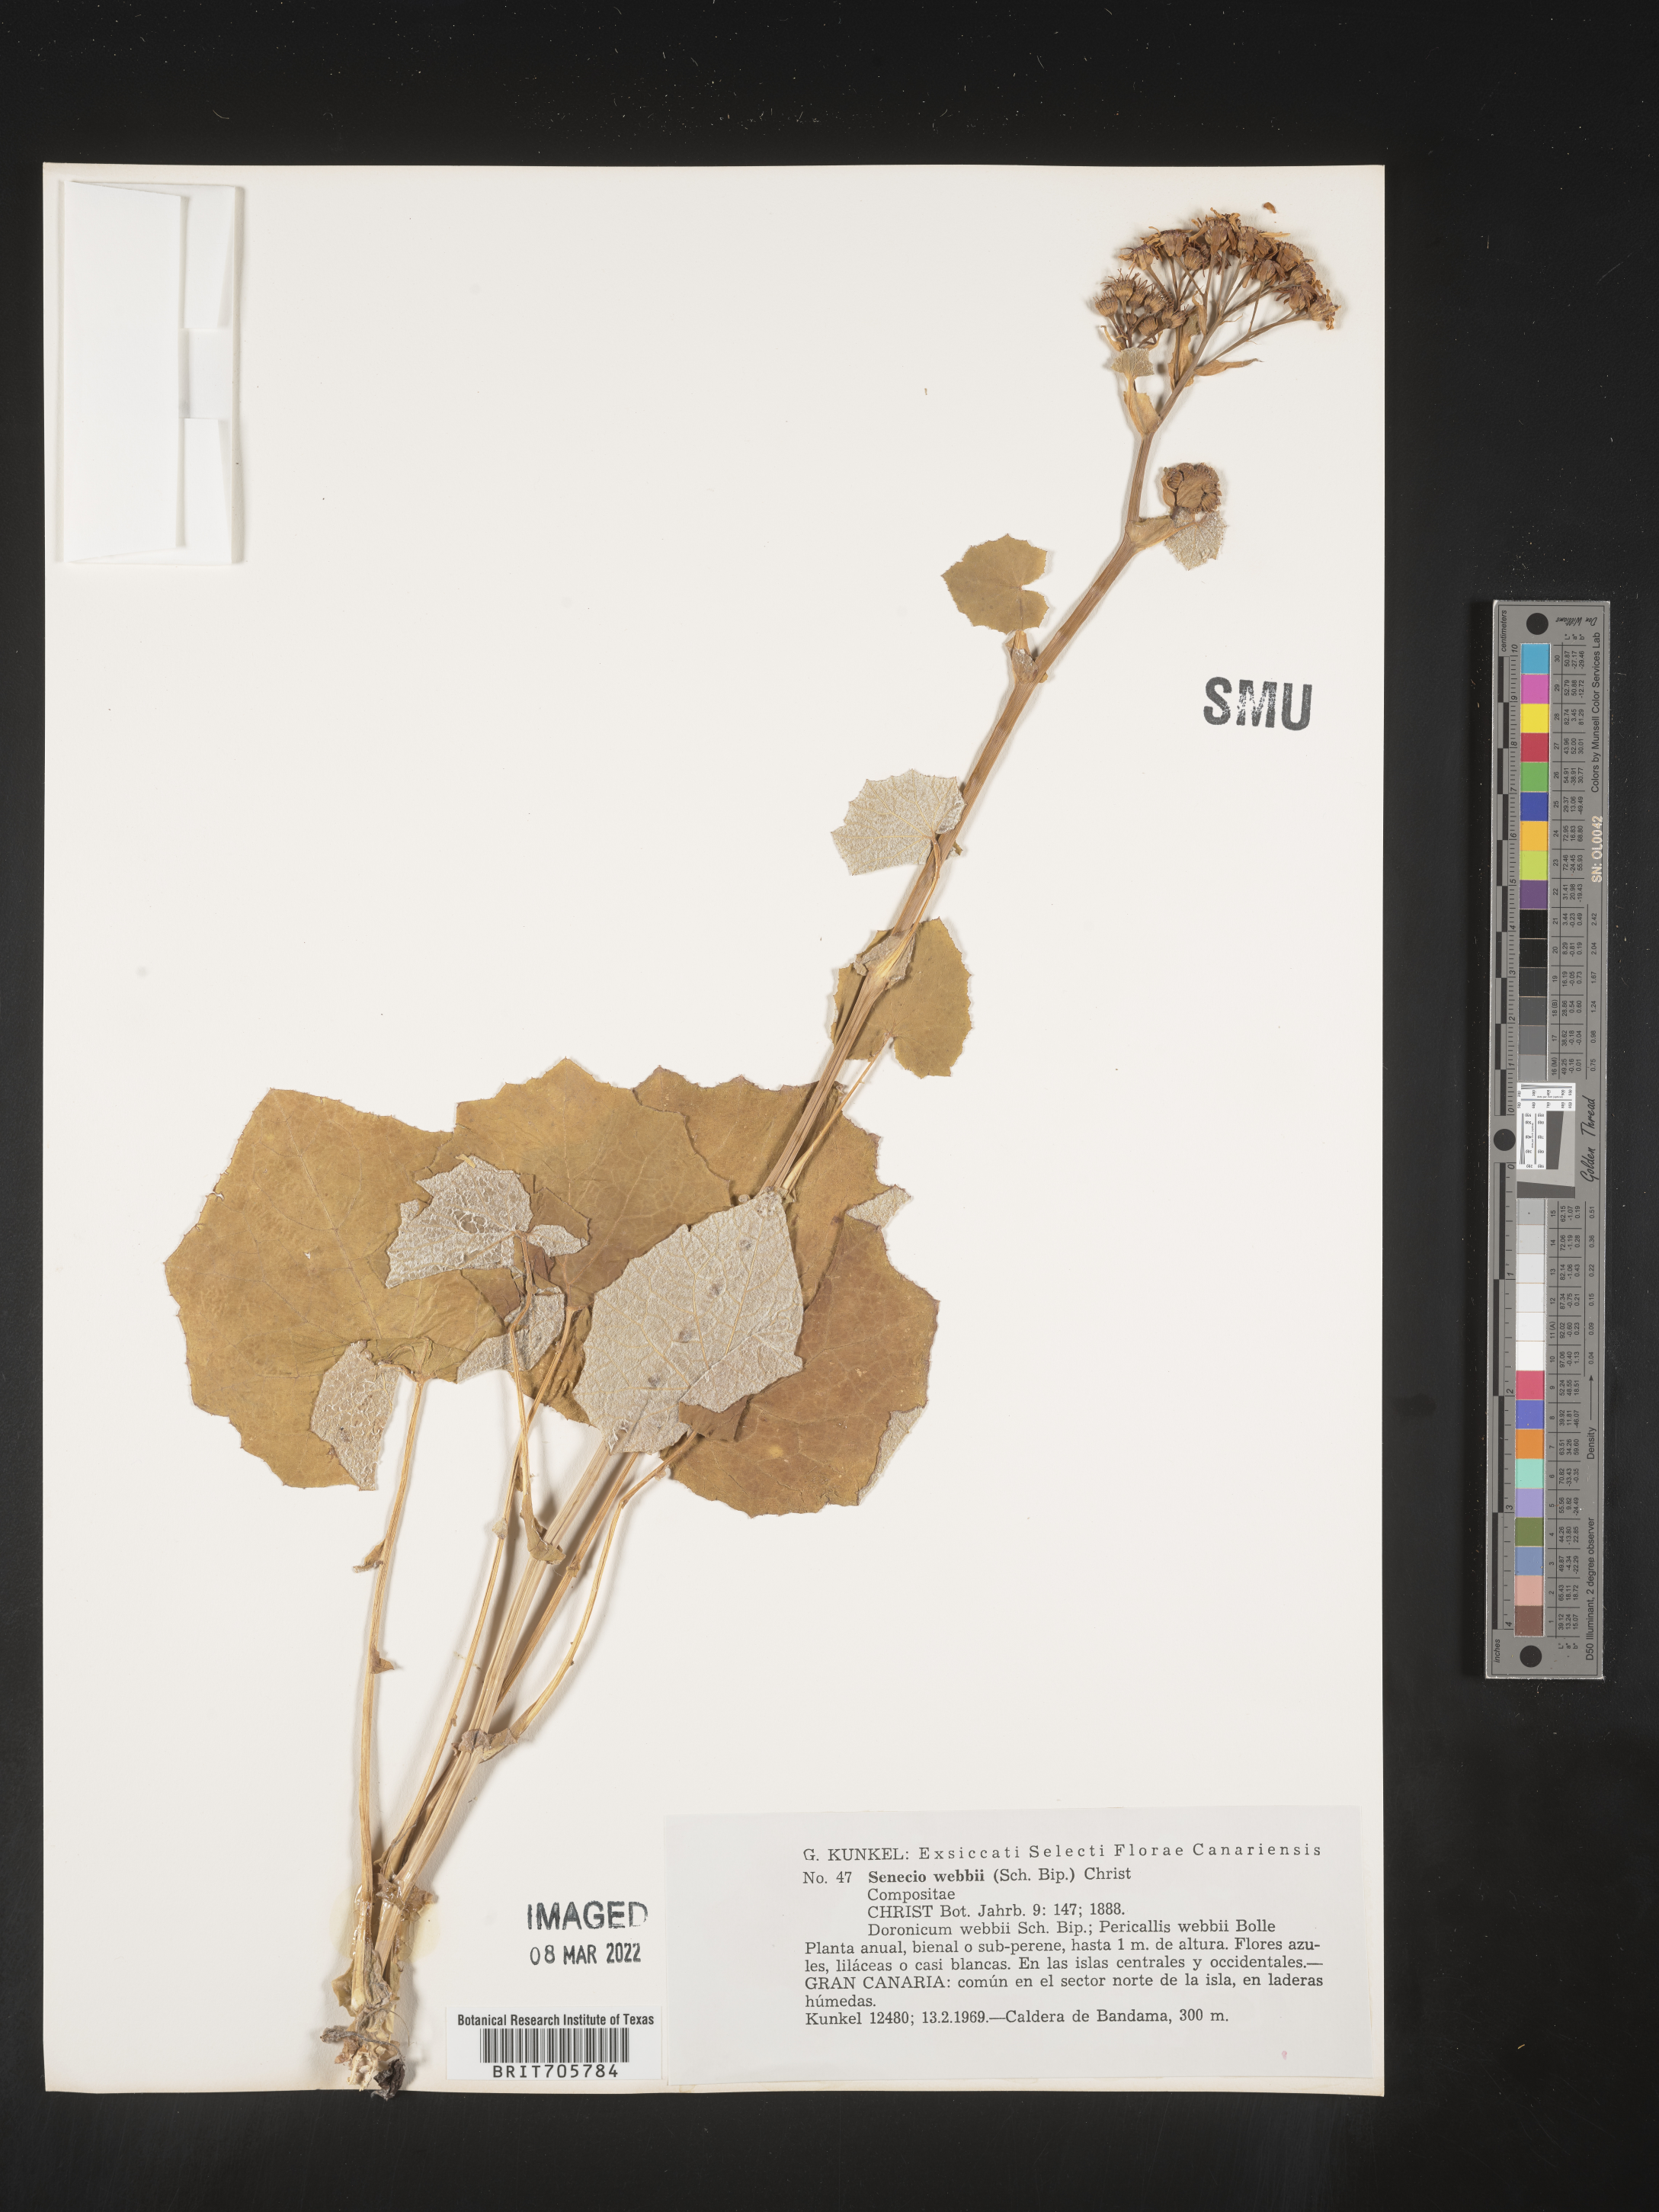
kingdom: Plantae
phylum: Tracheophyta
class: Magnoliopsida
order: Asterales
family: Asteraceae
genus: Senecio
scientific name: Senecio
